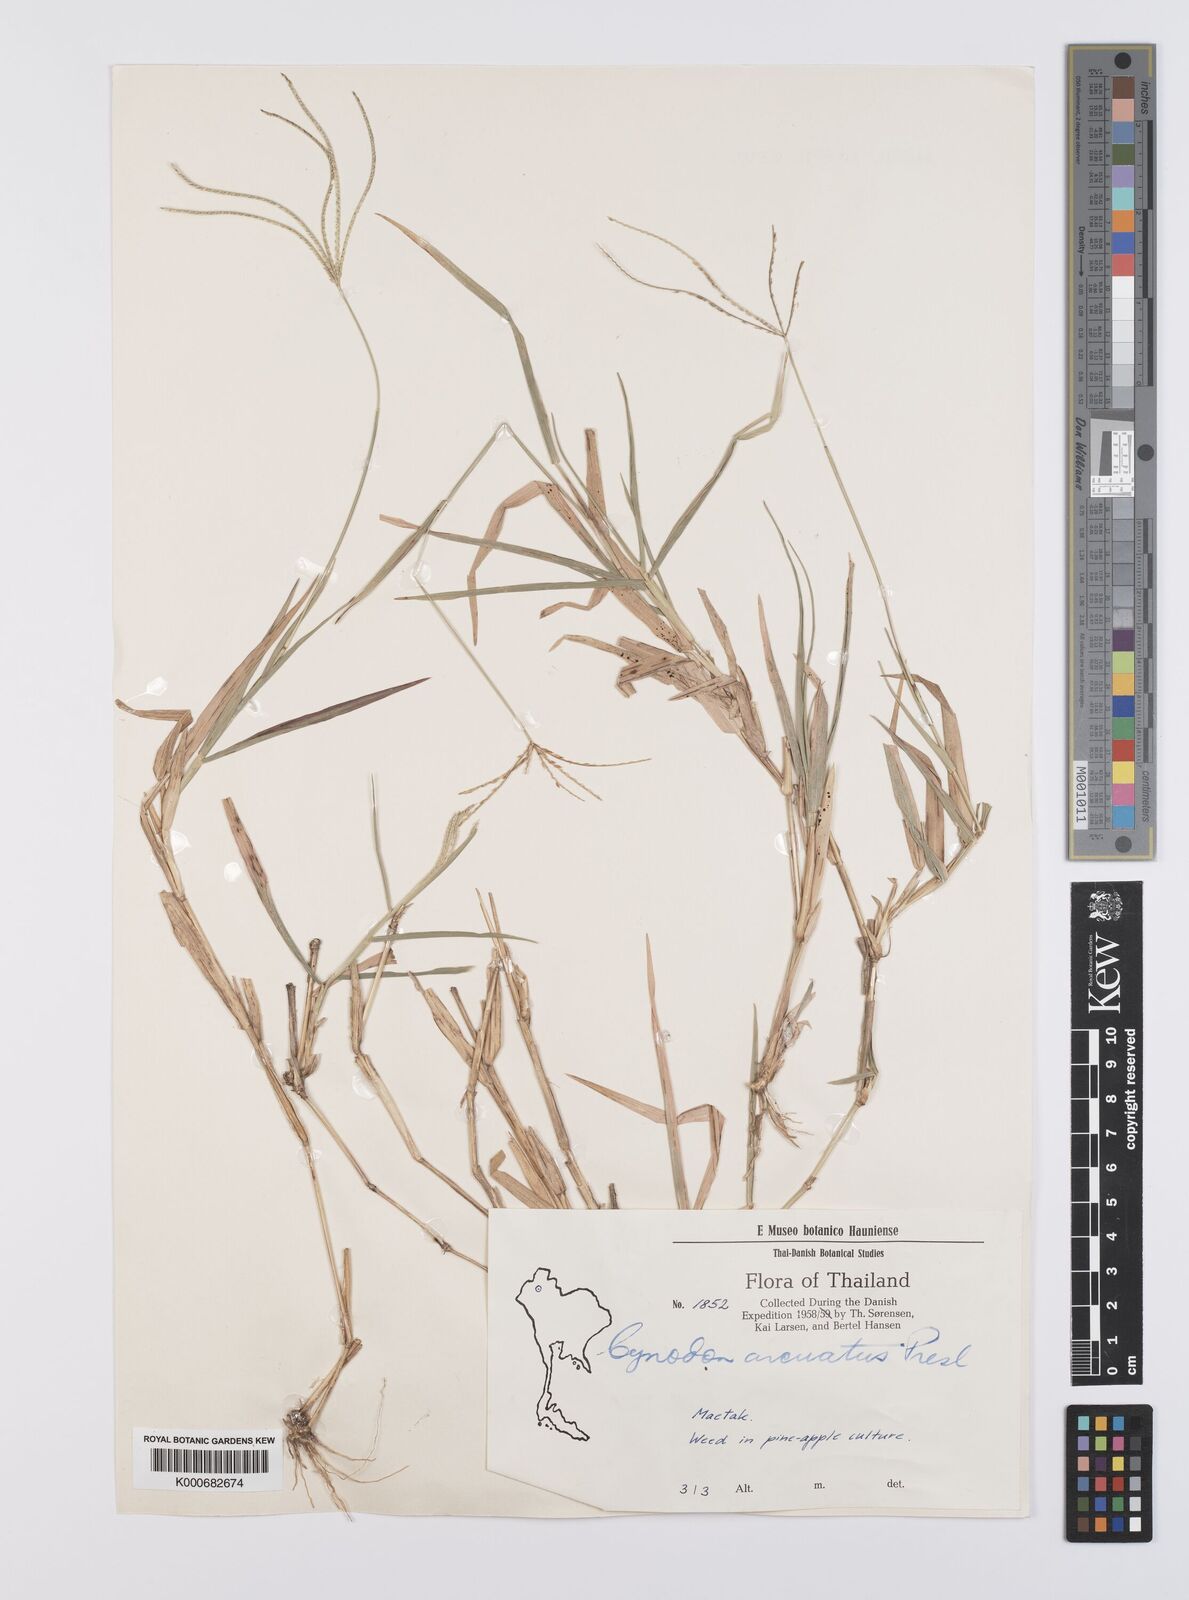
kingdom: Plantae
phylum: Tracheophyta
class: Liliopsida
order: Poales
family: Poaceae
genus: Cynodon
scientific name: Cynodon radiatus
